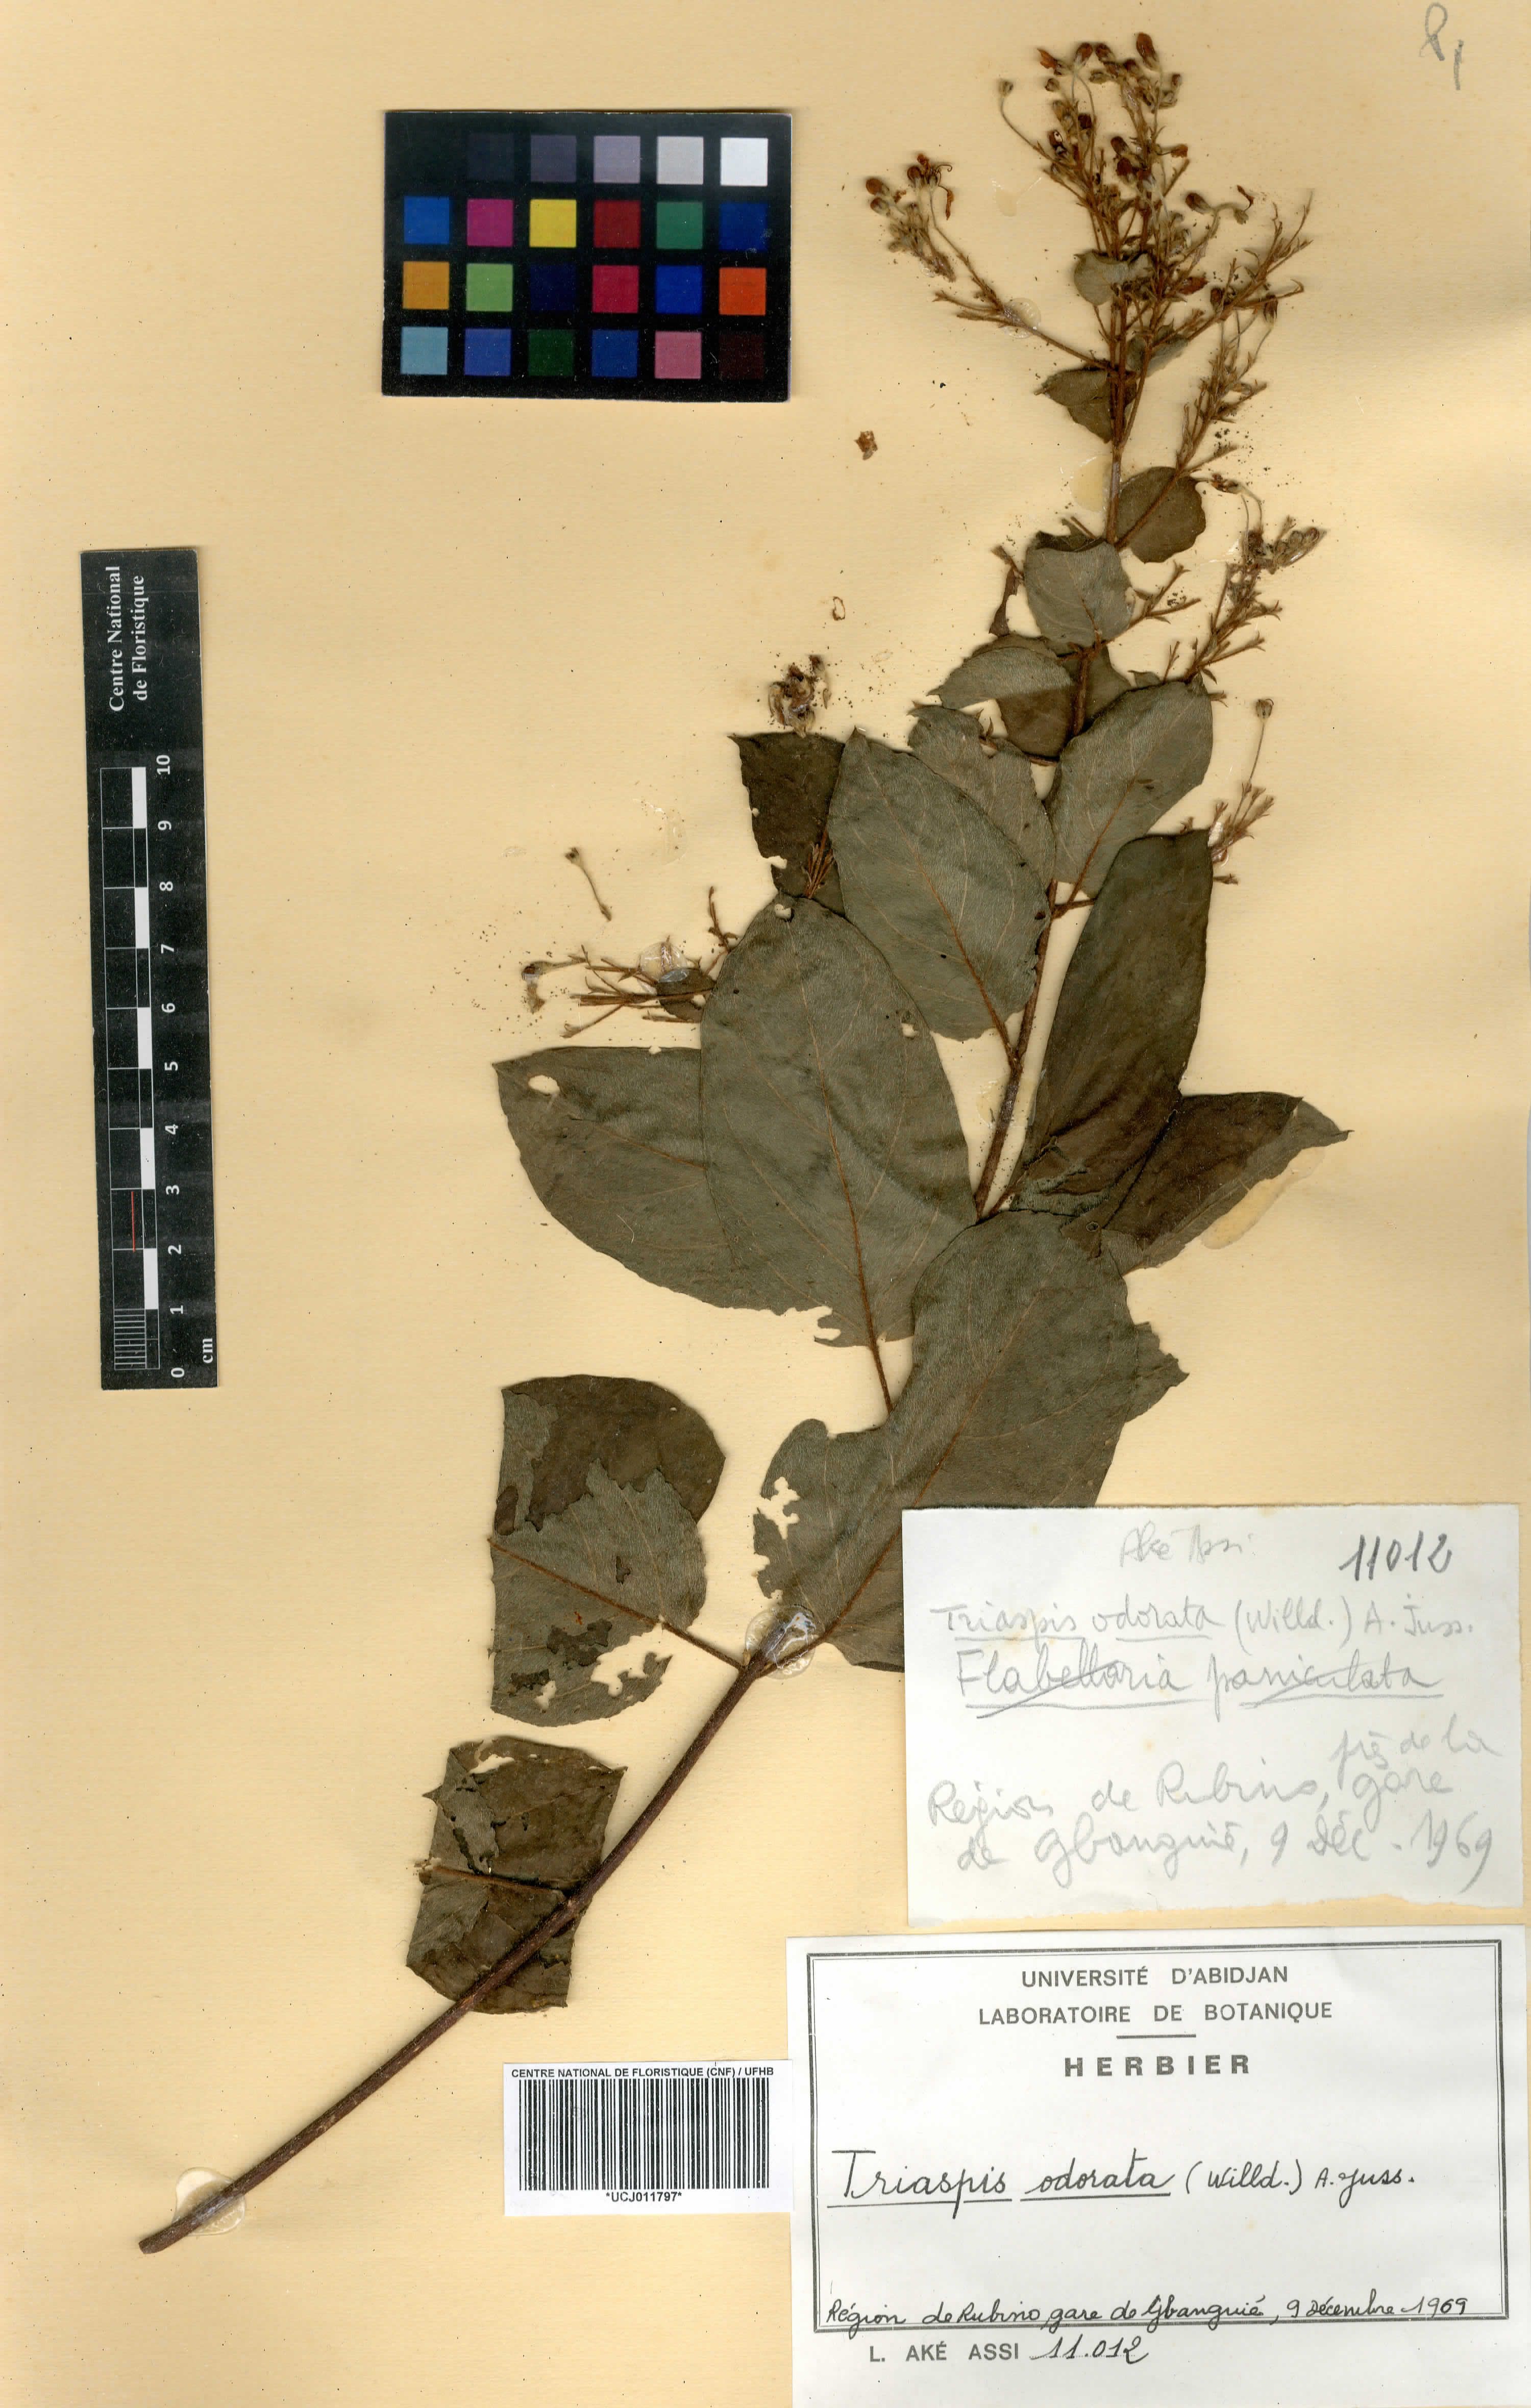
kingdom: Plantae
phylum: Tracheophyta
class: Magnoliopsida
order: Malpighiales
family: Malpighiaceae
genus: Triaspis
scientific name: Triaspis odorata
